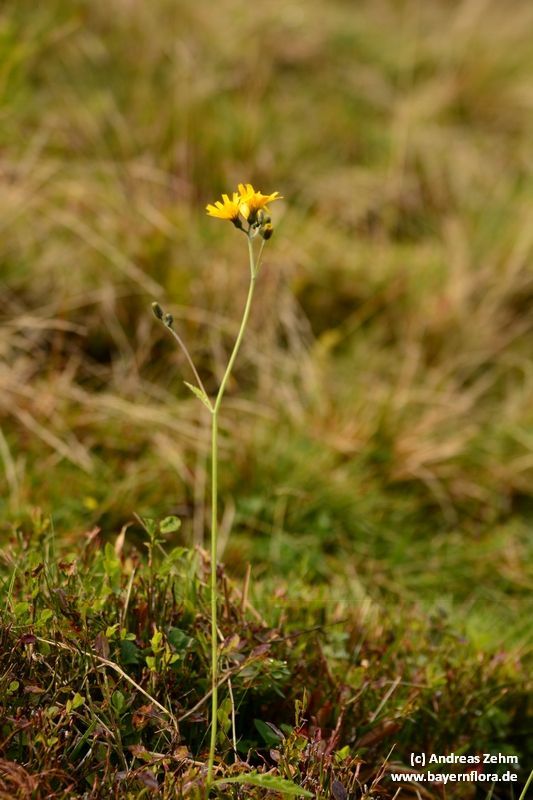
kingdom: Plantae
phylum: Tracheophyta
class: Magnoliopsida
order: Asterales
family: Asteraceae
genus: Hieracium
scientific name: Hieracium murorum
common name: Wall hawkweed
